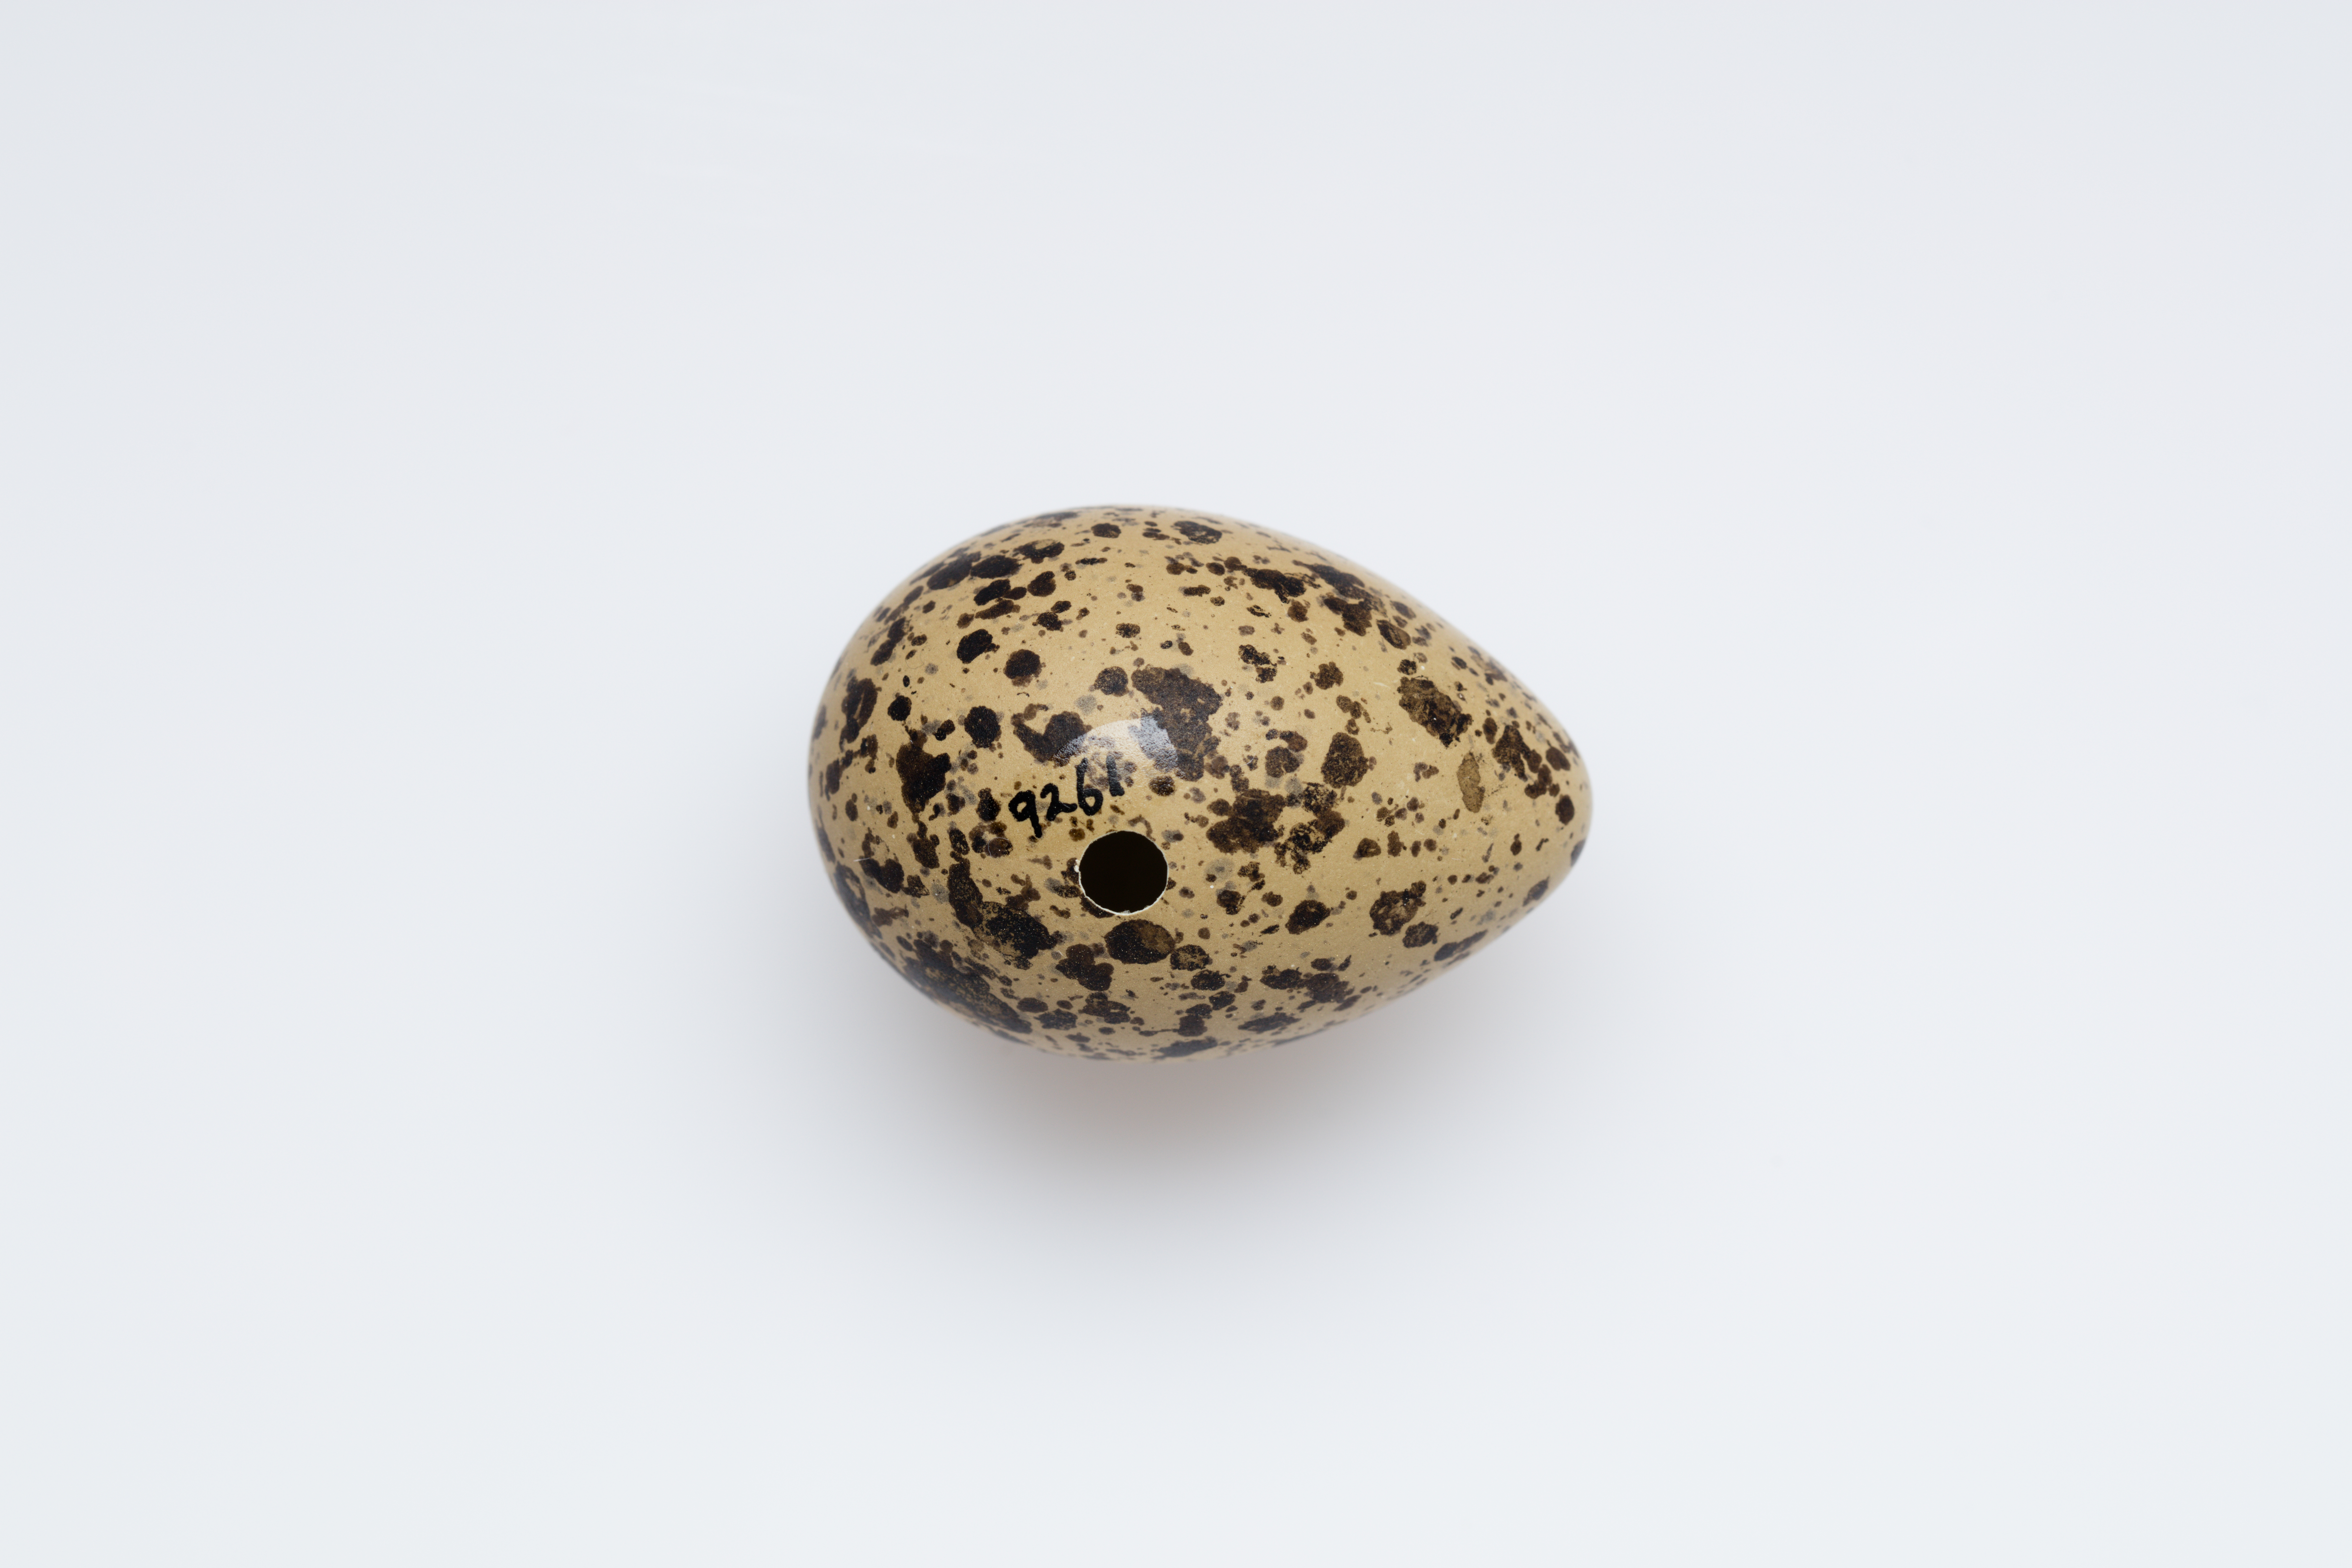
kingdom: Animalia
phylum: Chordata
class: Aves
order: Charadriiformes
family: Charadriidae
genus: Charadrius
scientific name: Charadrius obscurus
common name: New zealand plover
